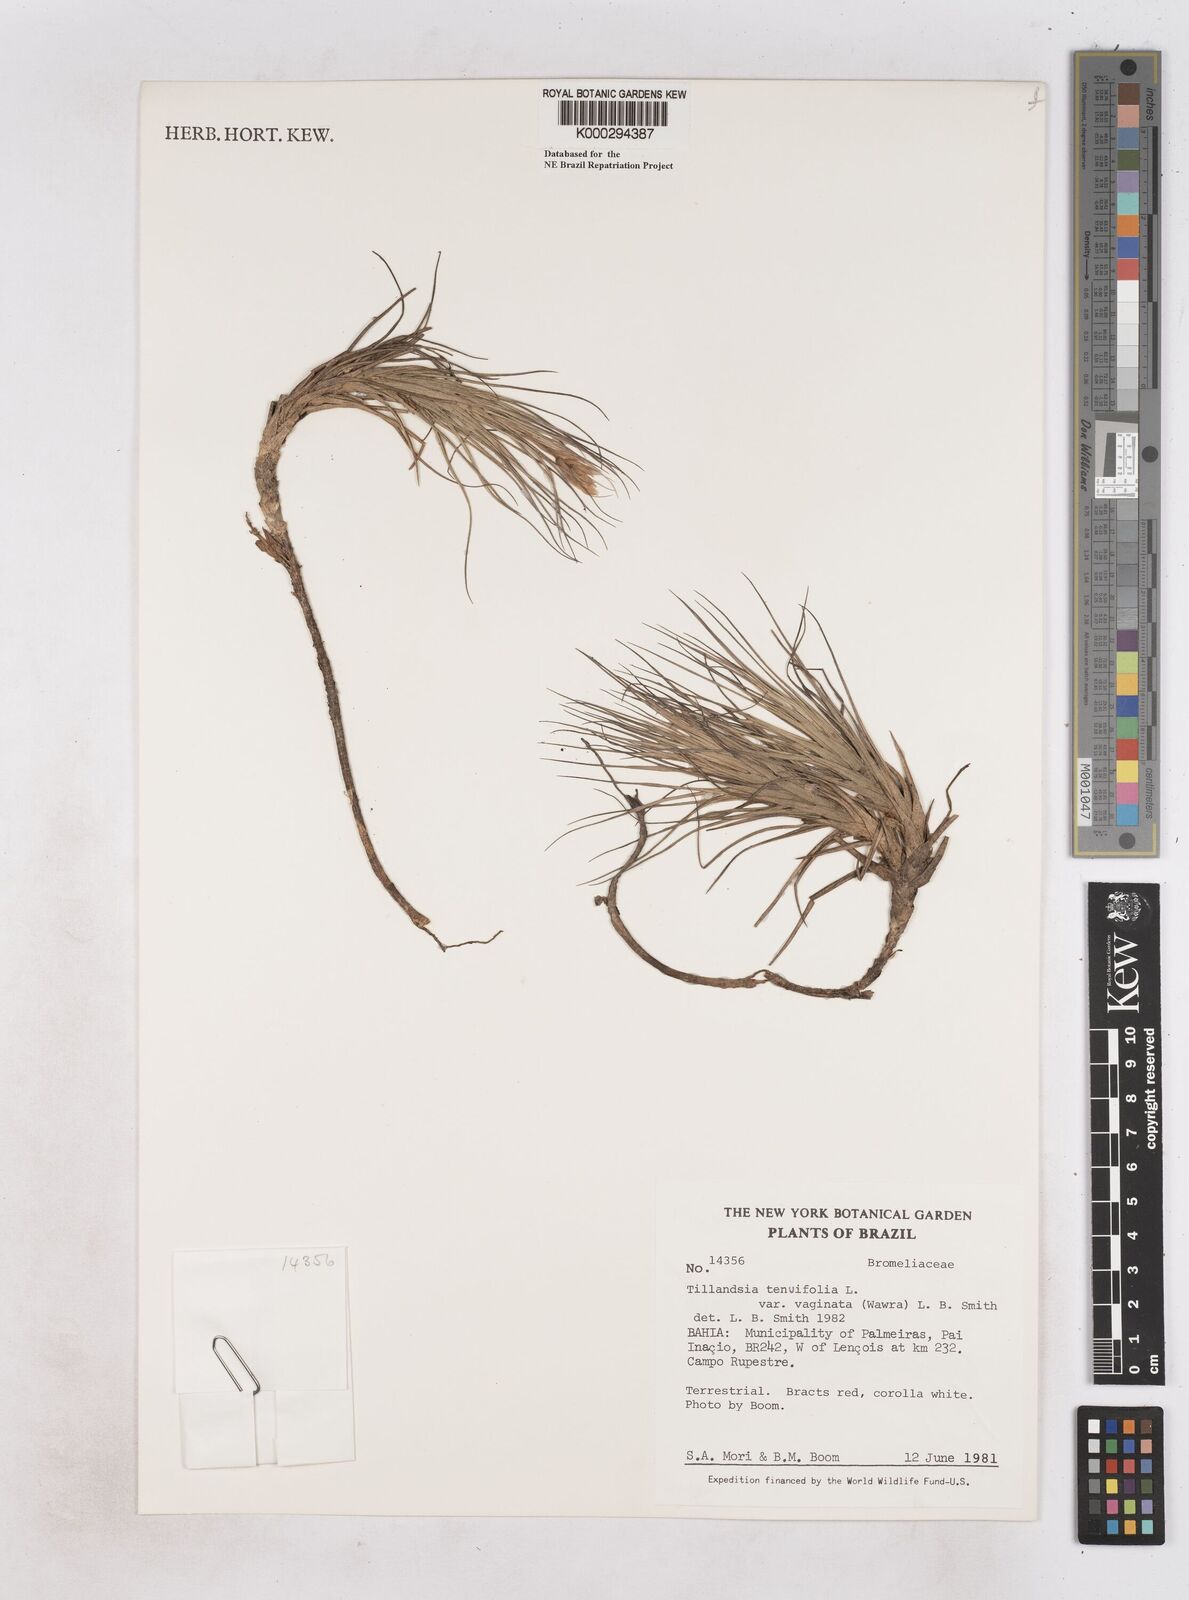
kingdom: Plantae
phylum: Tracheophyta
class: Liliopsida
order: Poales
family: Bromeliaceae
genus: Tillandsia
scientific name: Tillandsia tenuifolia
